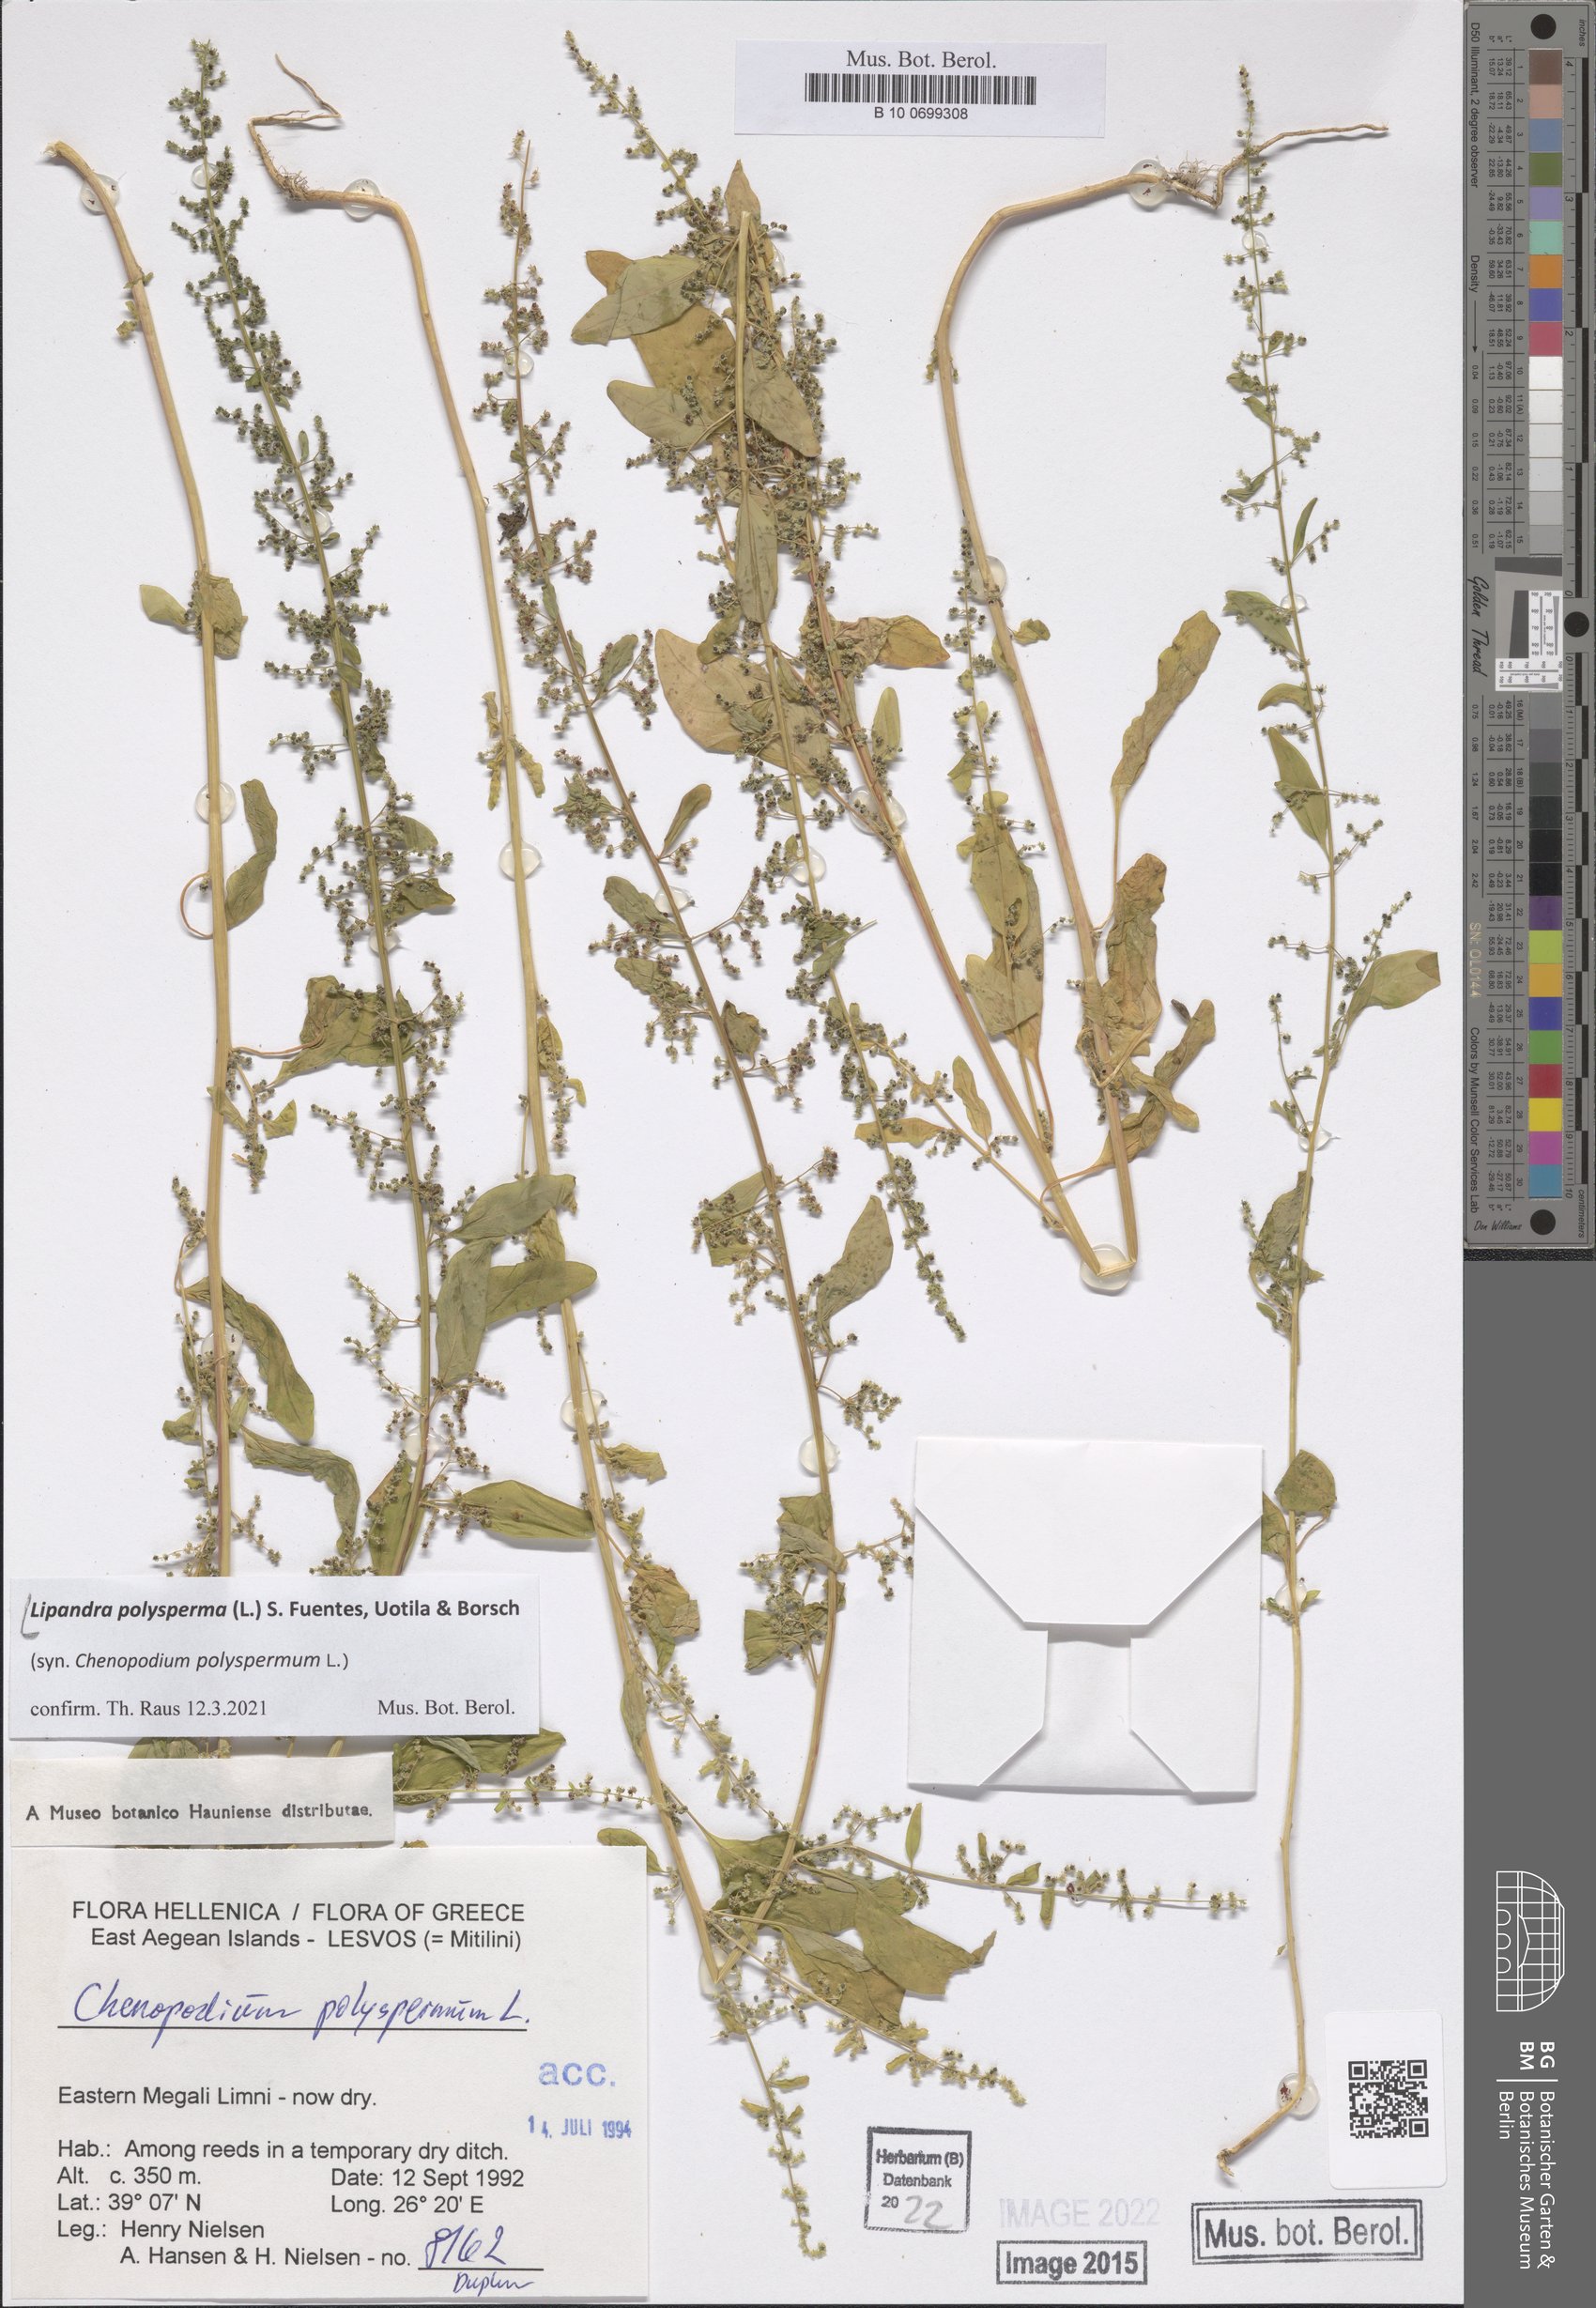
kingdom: Plantae
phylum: Tracheophyta
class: Magnoliopsida
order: Caryophyllales
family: Amaranthaceae
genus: Lipandra
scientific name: Lipandra polysperma
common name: Many-seed goosefoot
